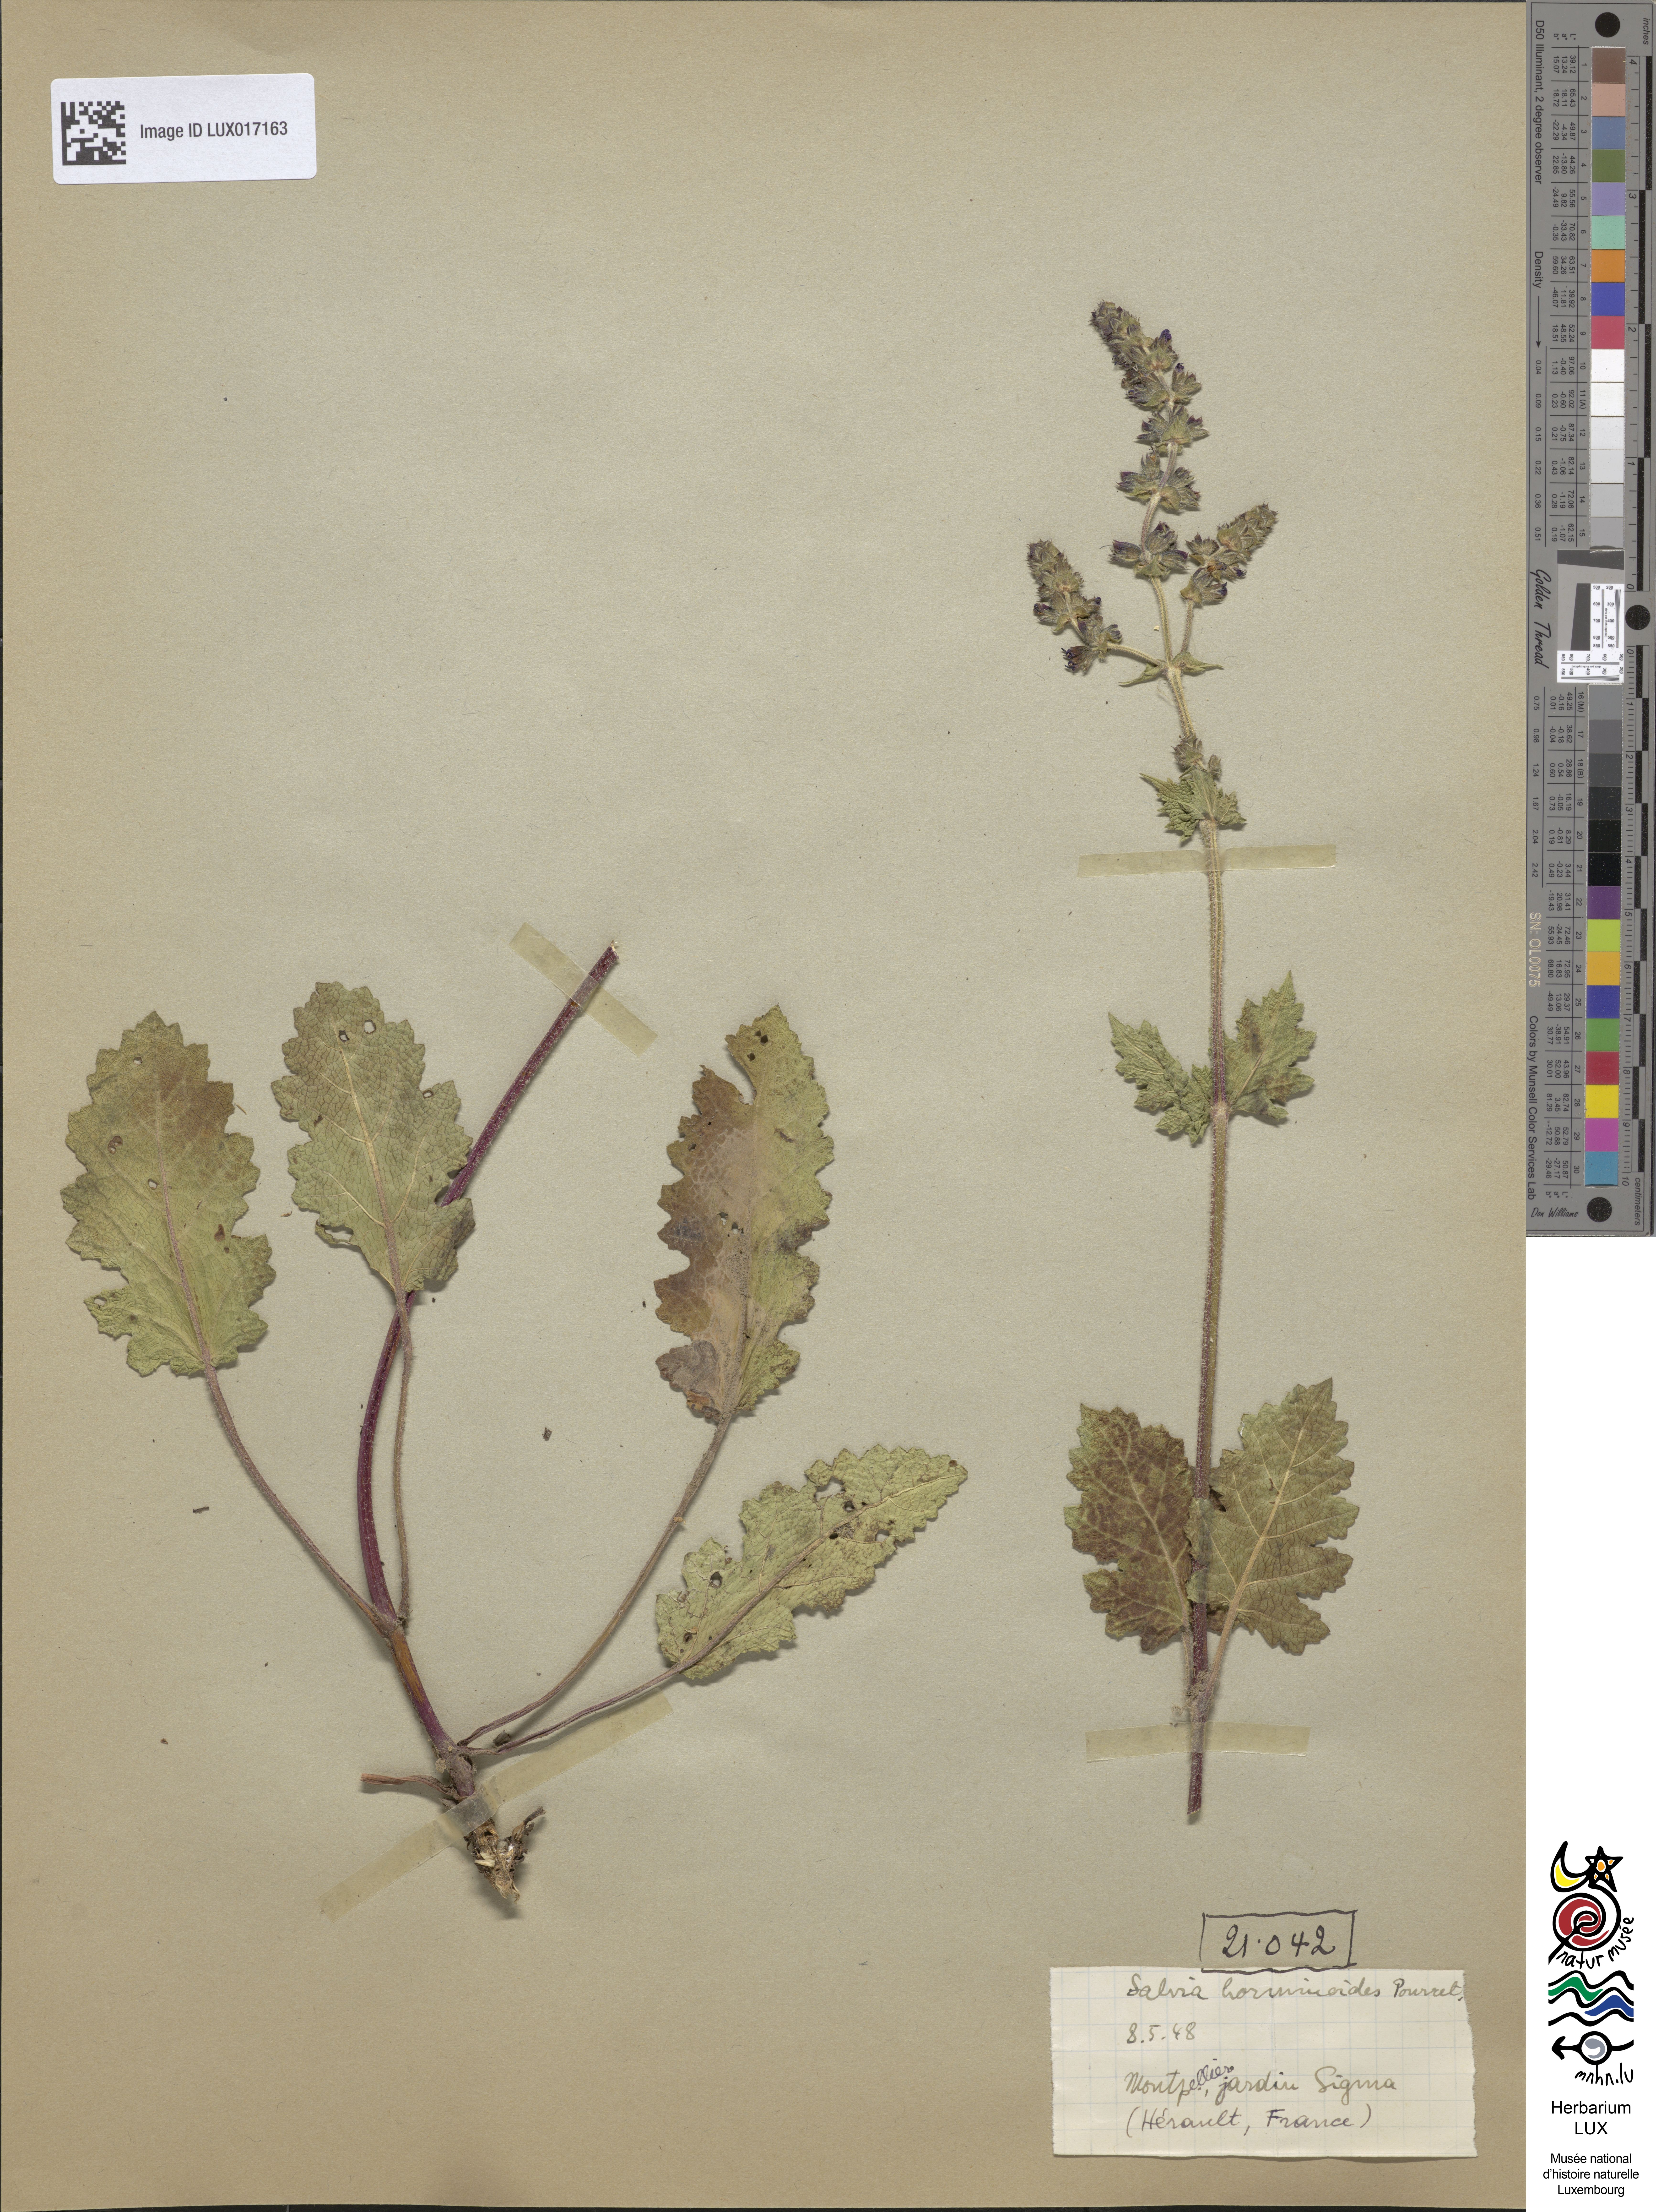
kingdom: Plantae
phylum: Tracheophyta
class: Magnoliopsida
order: Lamiales
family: Lamiaceae
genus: Salvia
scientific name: Salvia verbenaca
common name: Wild clary
